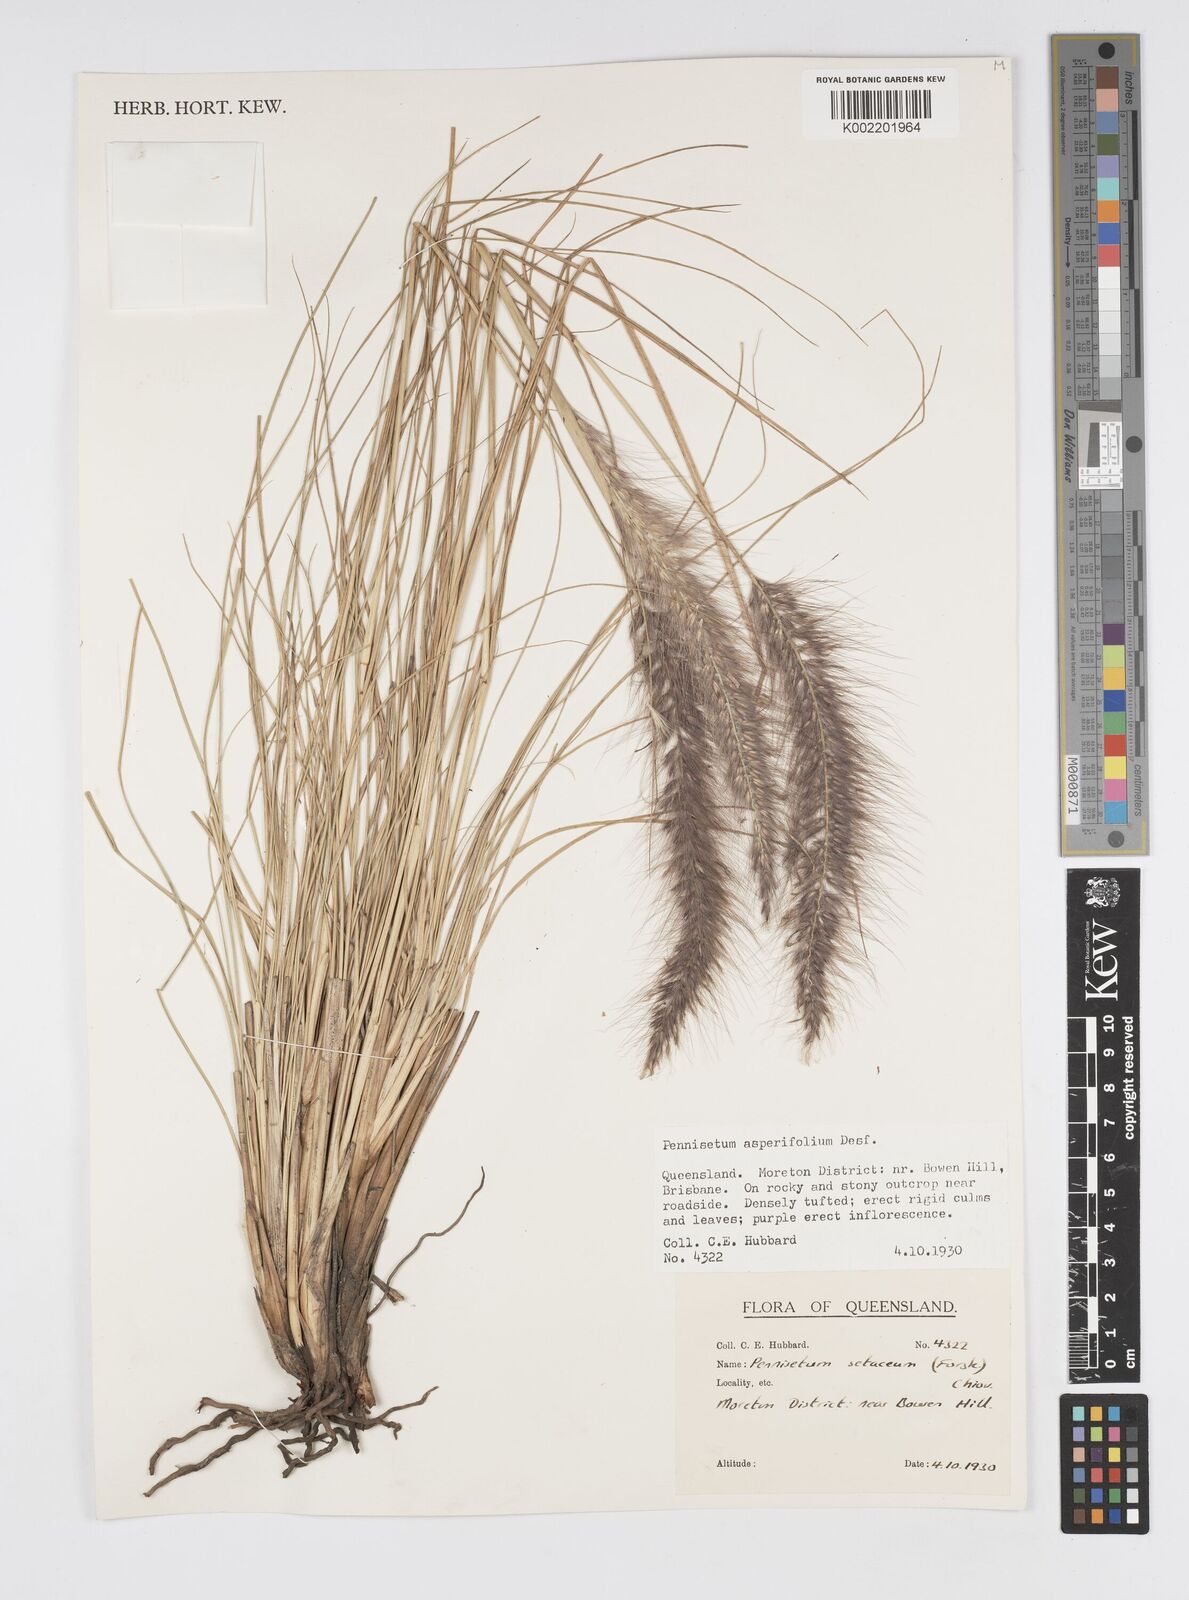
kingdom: Plantae
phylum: Tracheophyta
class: Liliopsida
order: Poales
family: Poaceae
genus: Cenchrus
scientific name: Cenchrus setaceus
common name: Crimson fountaingrass
